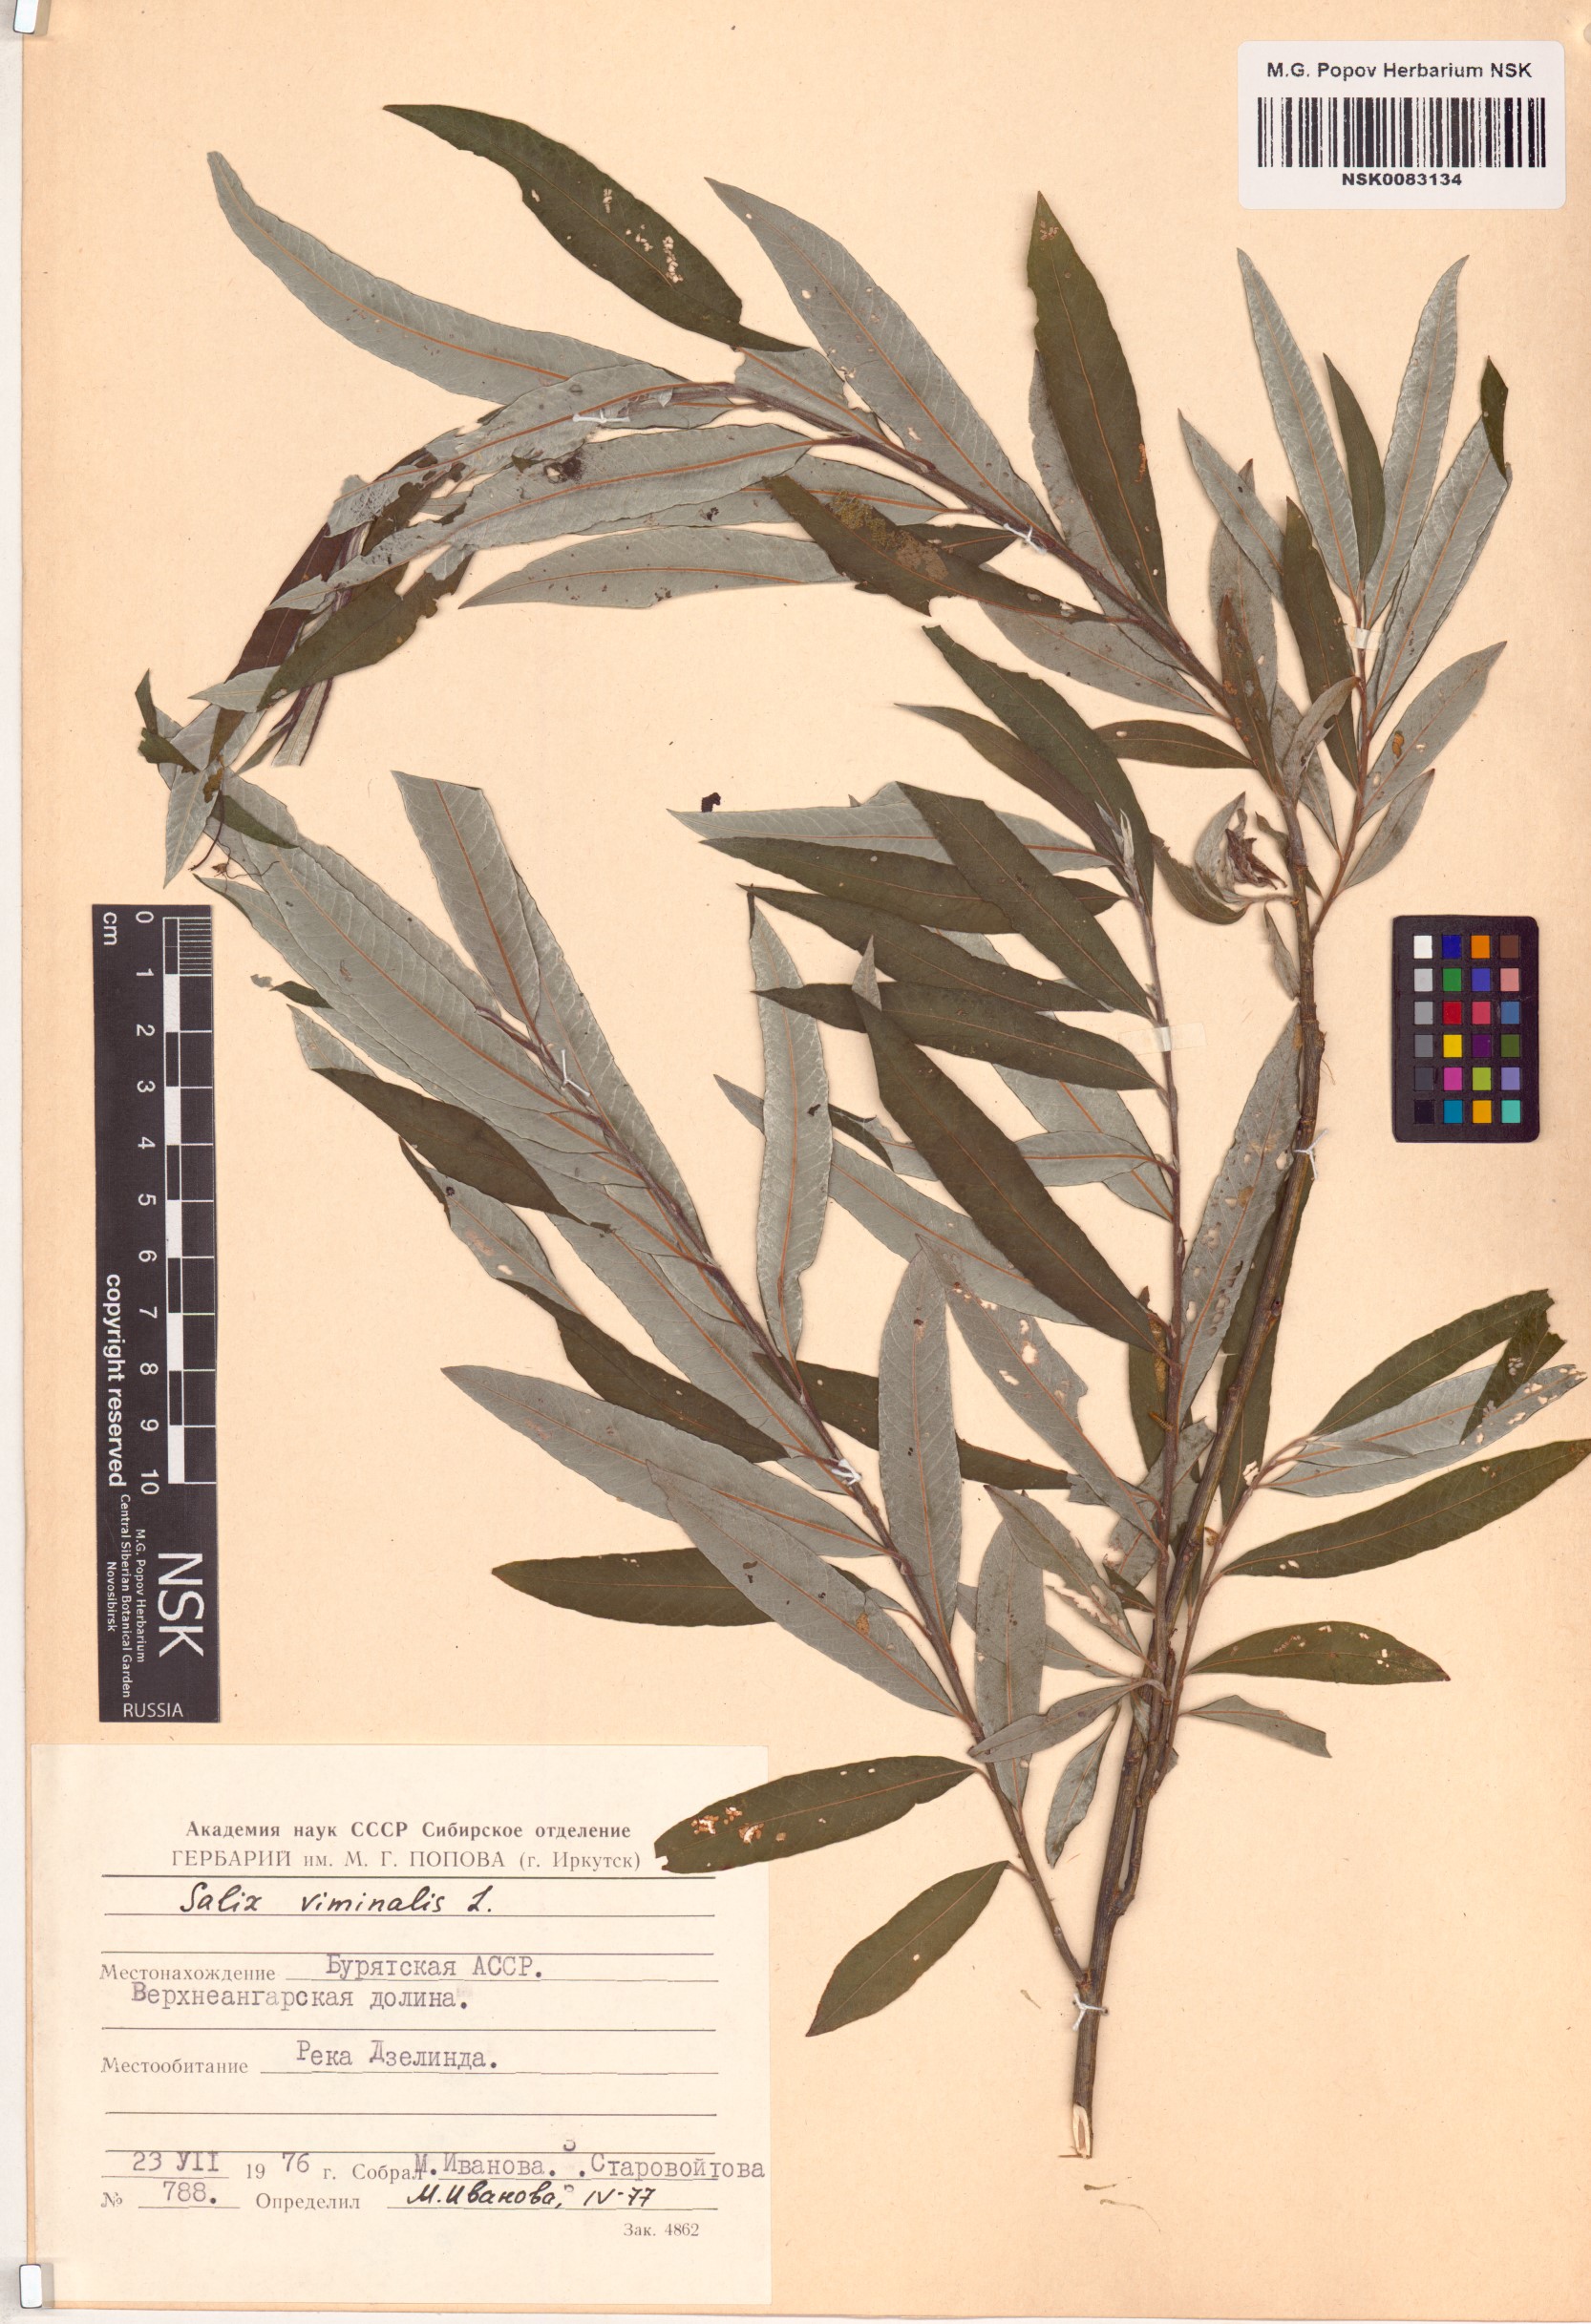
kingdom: Plantae
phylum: Tracheophyta
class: Magnoliopsida
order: Malpighiales
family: Salicaceae
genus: Salix
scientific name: Salix viminalis
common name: Osier
